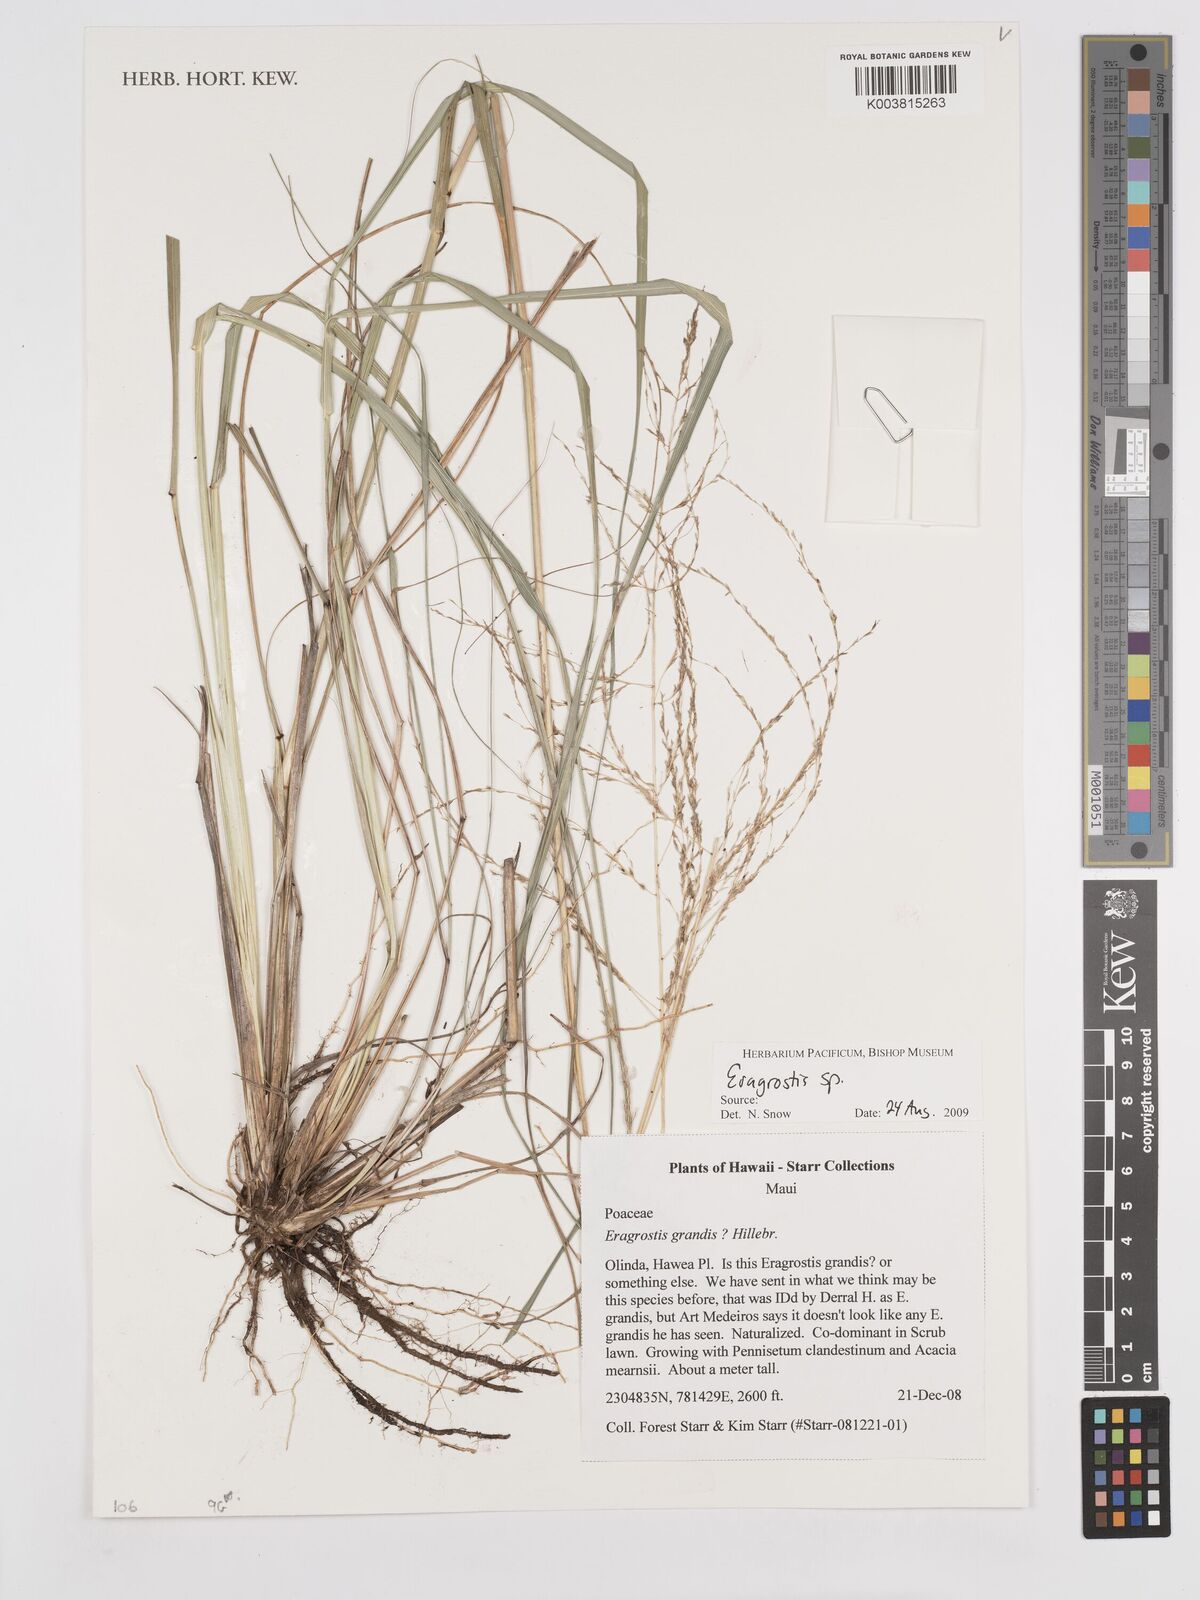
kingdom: Plantae
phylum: Tracheophyta
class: Liliopsida
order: Poales
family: Poaceae
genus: Eragrostis
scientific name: Eragrostis
